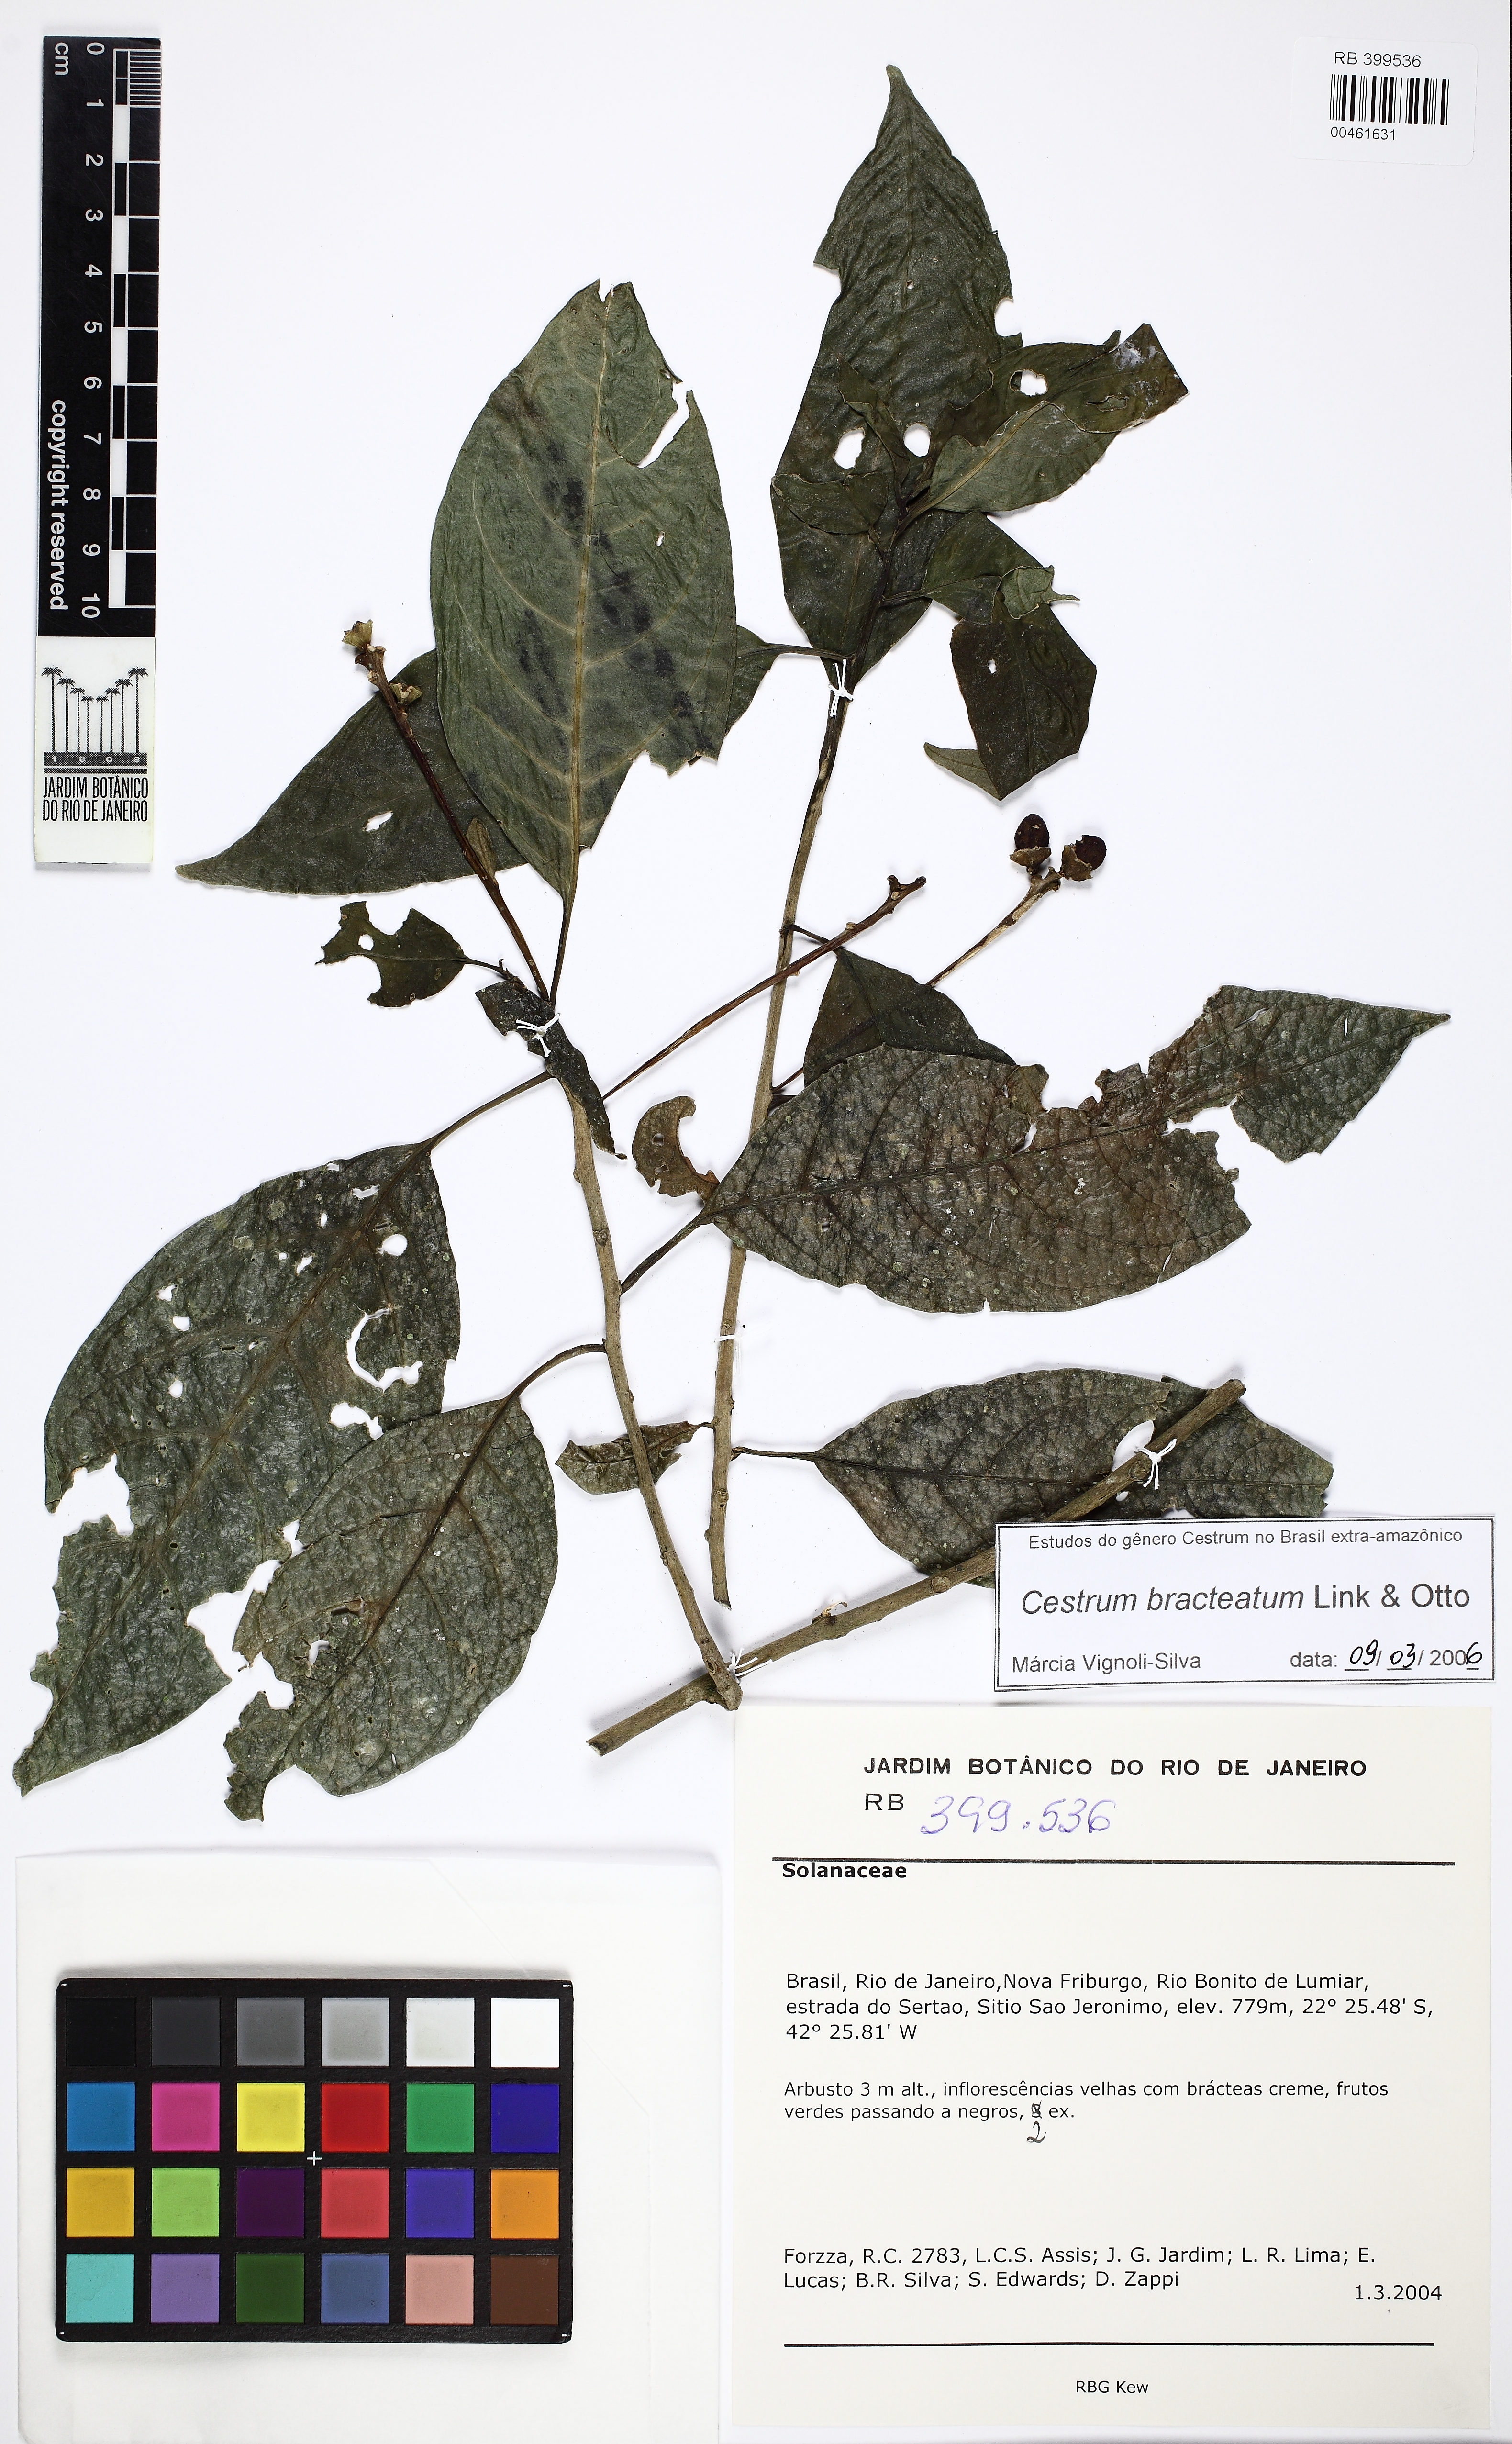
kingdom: Plantae
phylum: Tracheophyta
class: Magnoliopsida
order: Solanales
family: Solanaceae
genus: Cestrum
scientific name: Cestrum bracteatum
